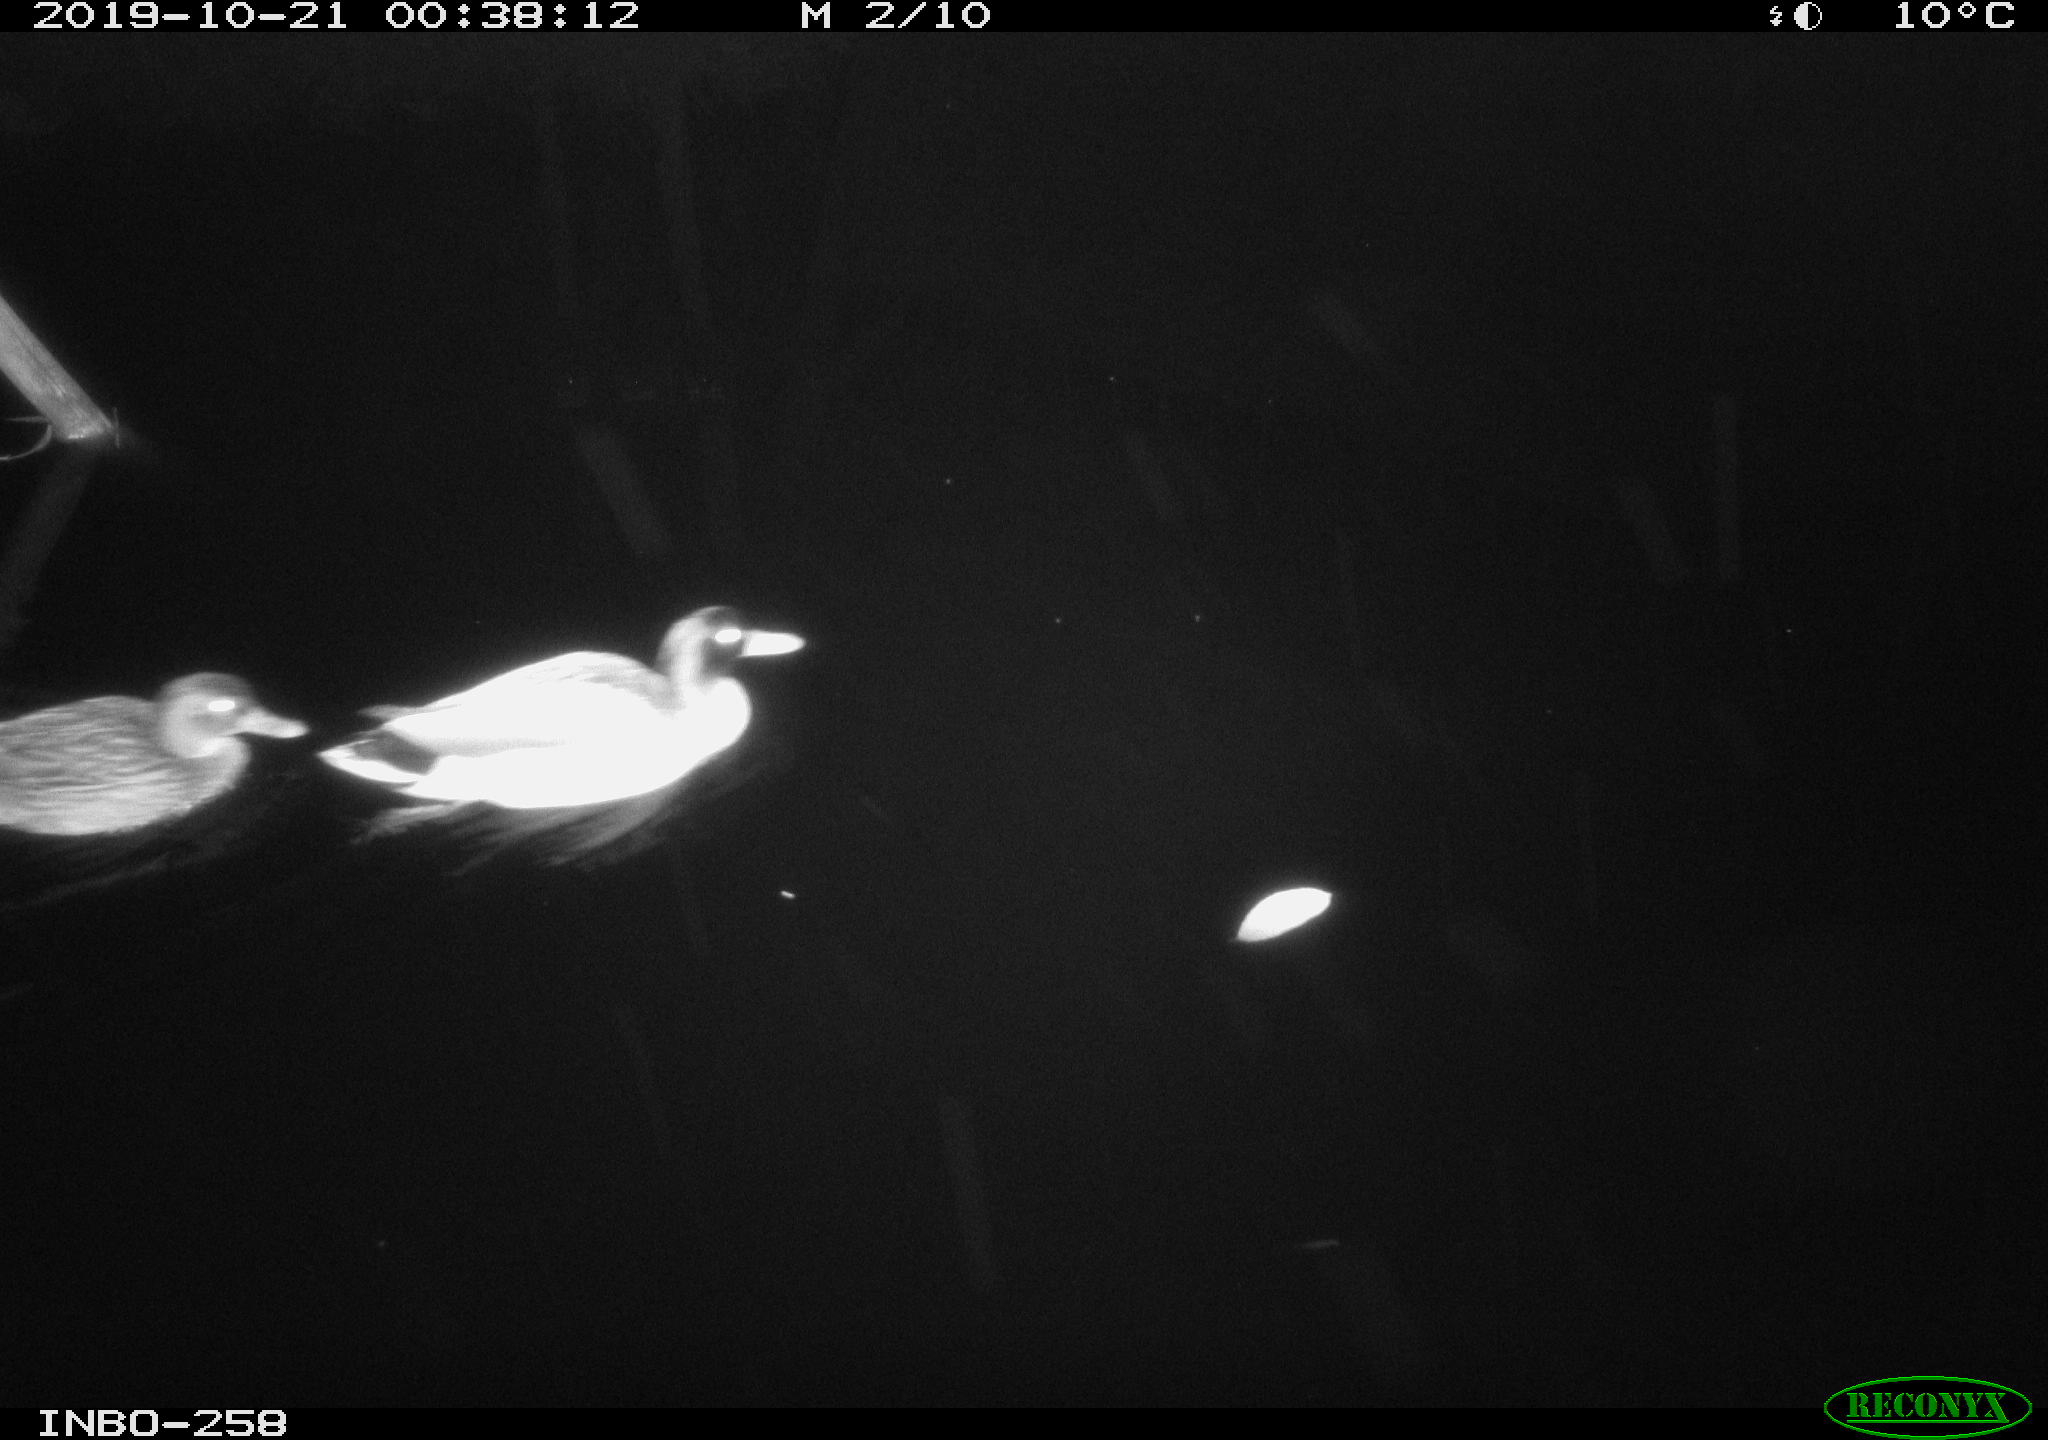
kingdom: Animalia
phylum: Chordata
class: Aves
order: Anseriformes
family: Anatidae
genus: Anas
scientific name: Anas platyrhynchos
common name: Mallard
